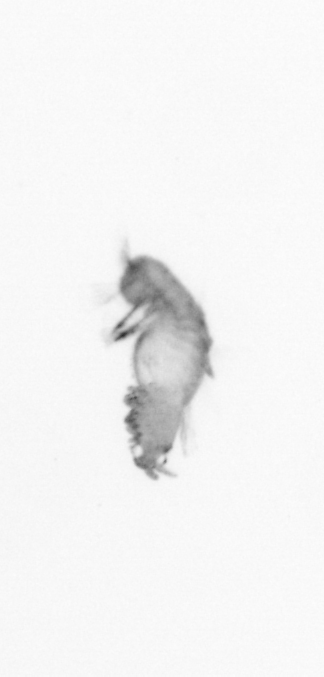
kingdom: Animalia
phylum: Annelida
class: Polychaeta
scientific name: Polychaeta
